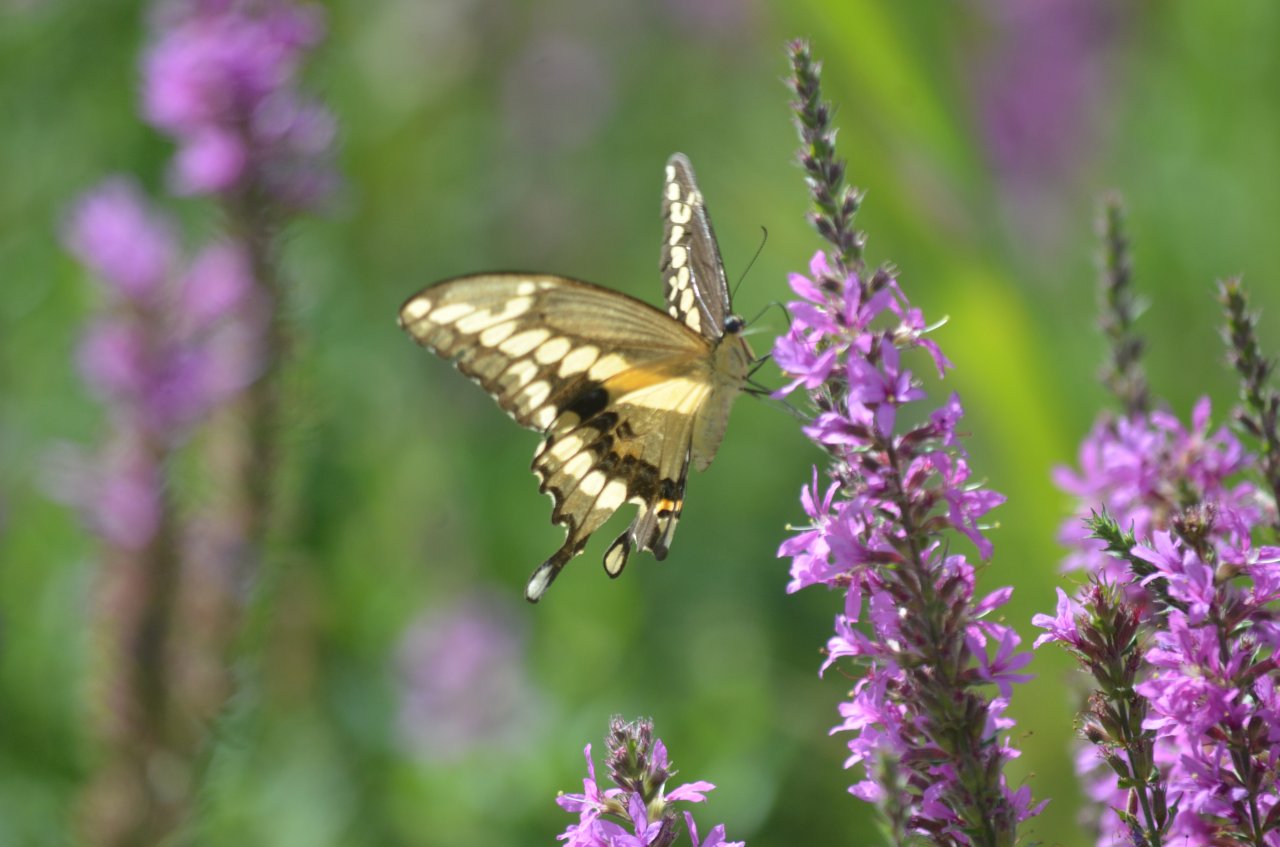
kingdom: Animalia
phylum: Arthropoda
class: Insecta
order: Lepidoptera
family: Papilionidae
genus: Papilio
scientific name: Papilio cresphontes
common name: Eastern Giant Swallowtail
